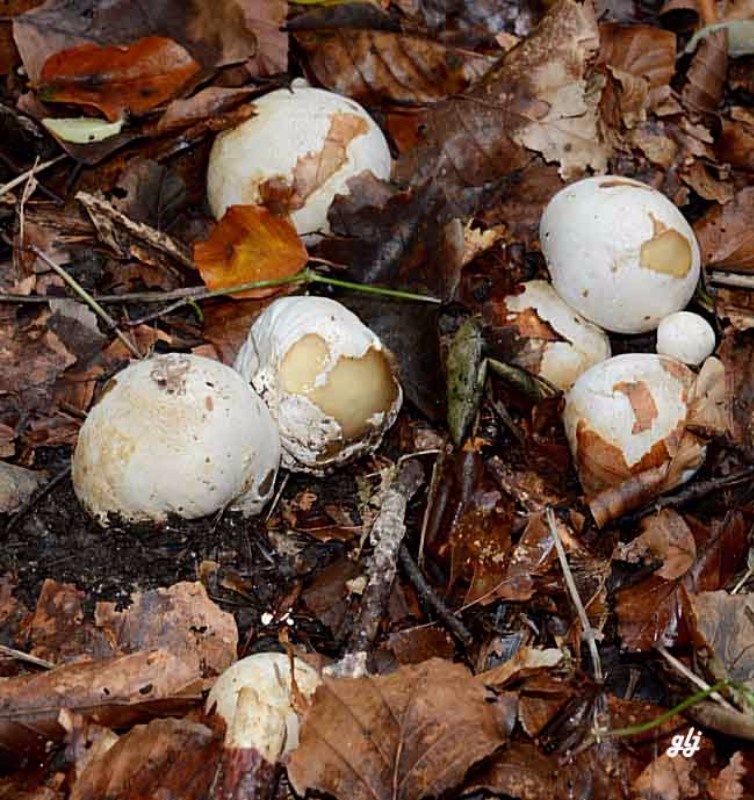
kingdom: Fungi
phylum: Basidiomycota
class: Agaricomycetes
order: Phallales
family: Phallaceae
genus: Phallus
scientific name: Phallus impudicus
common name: almindelig stinksvamp
